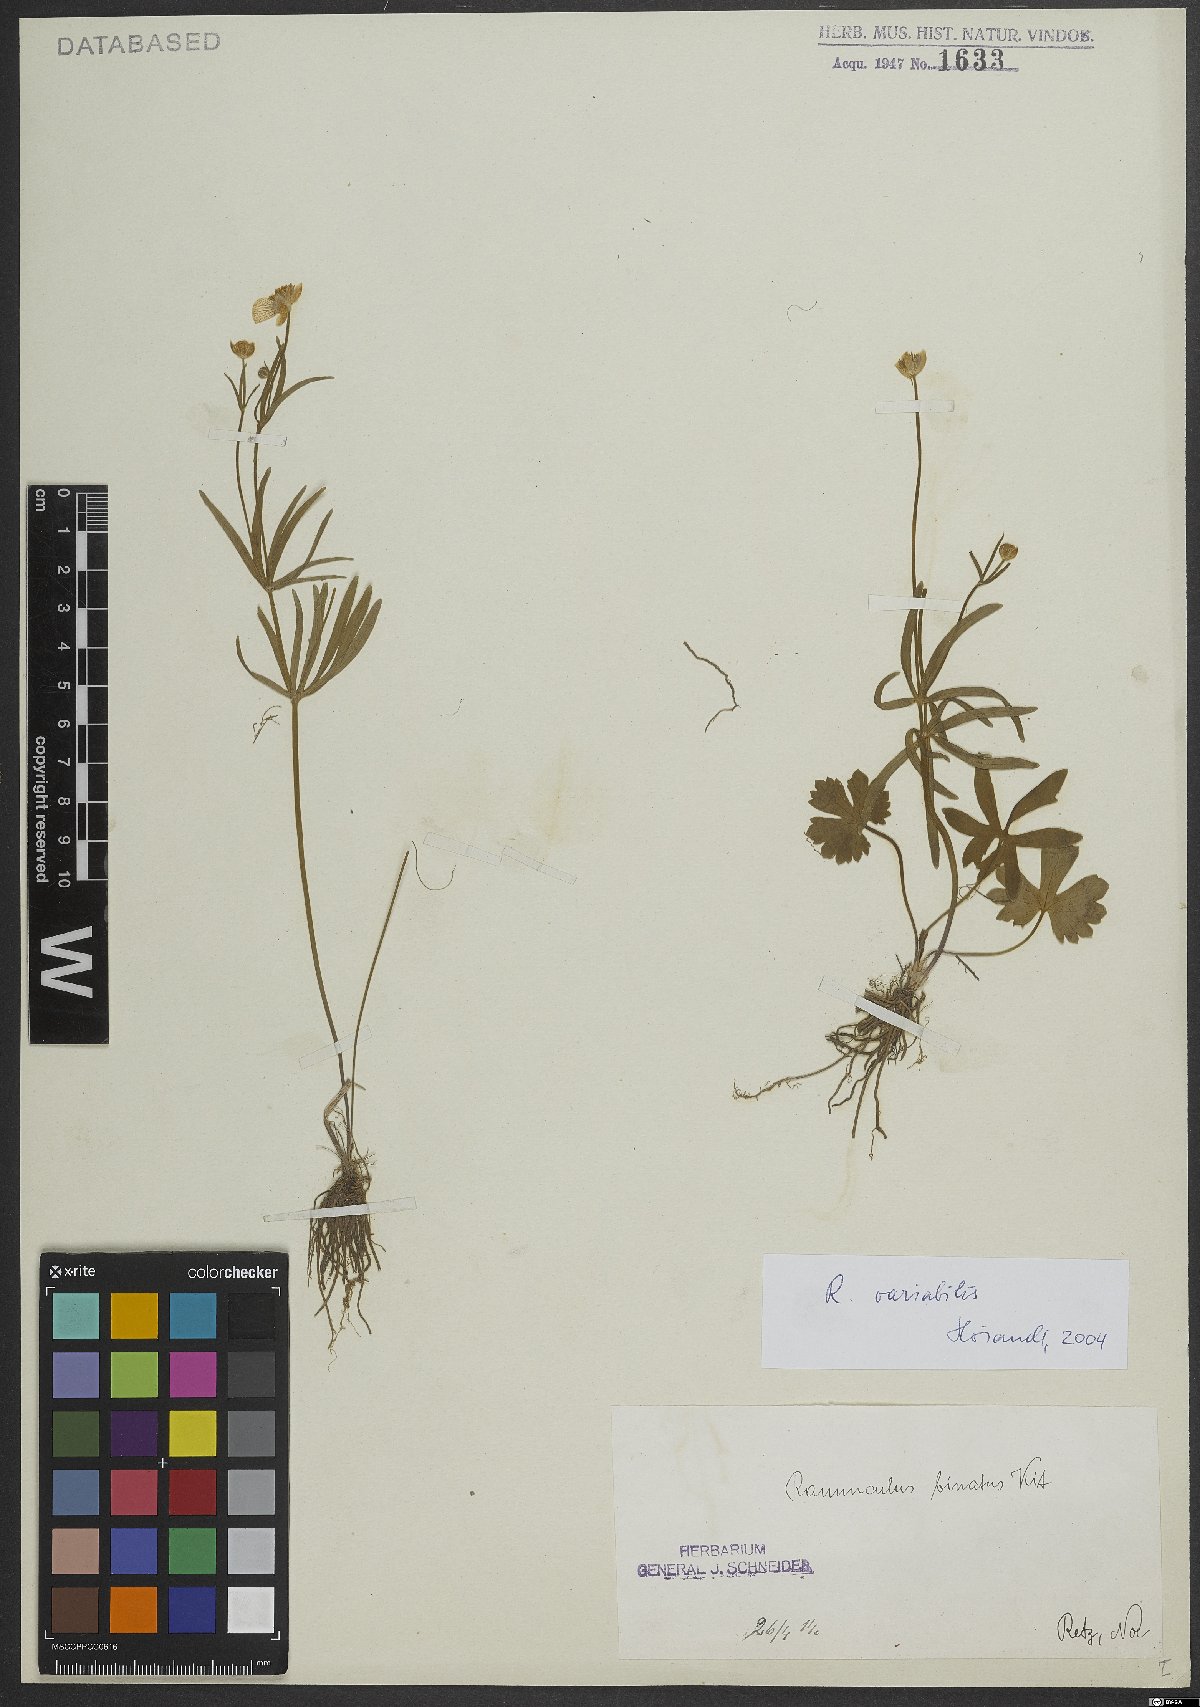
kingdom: Plantae
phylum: Tracheophyta
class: Magnoliopsida
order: Ranunculales
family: Ranunculaceae
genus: Ranunculus
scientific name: Ranunculus variabilis
